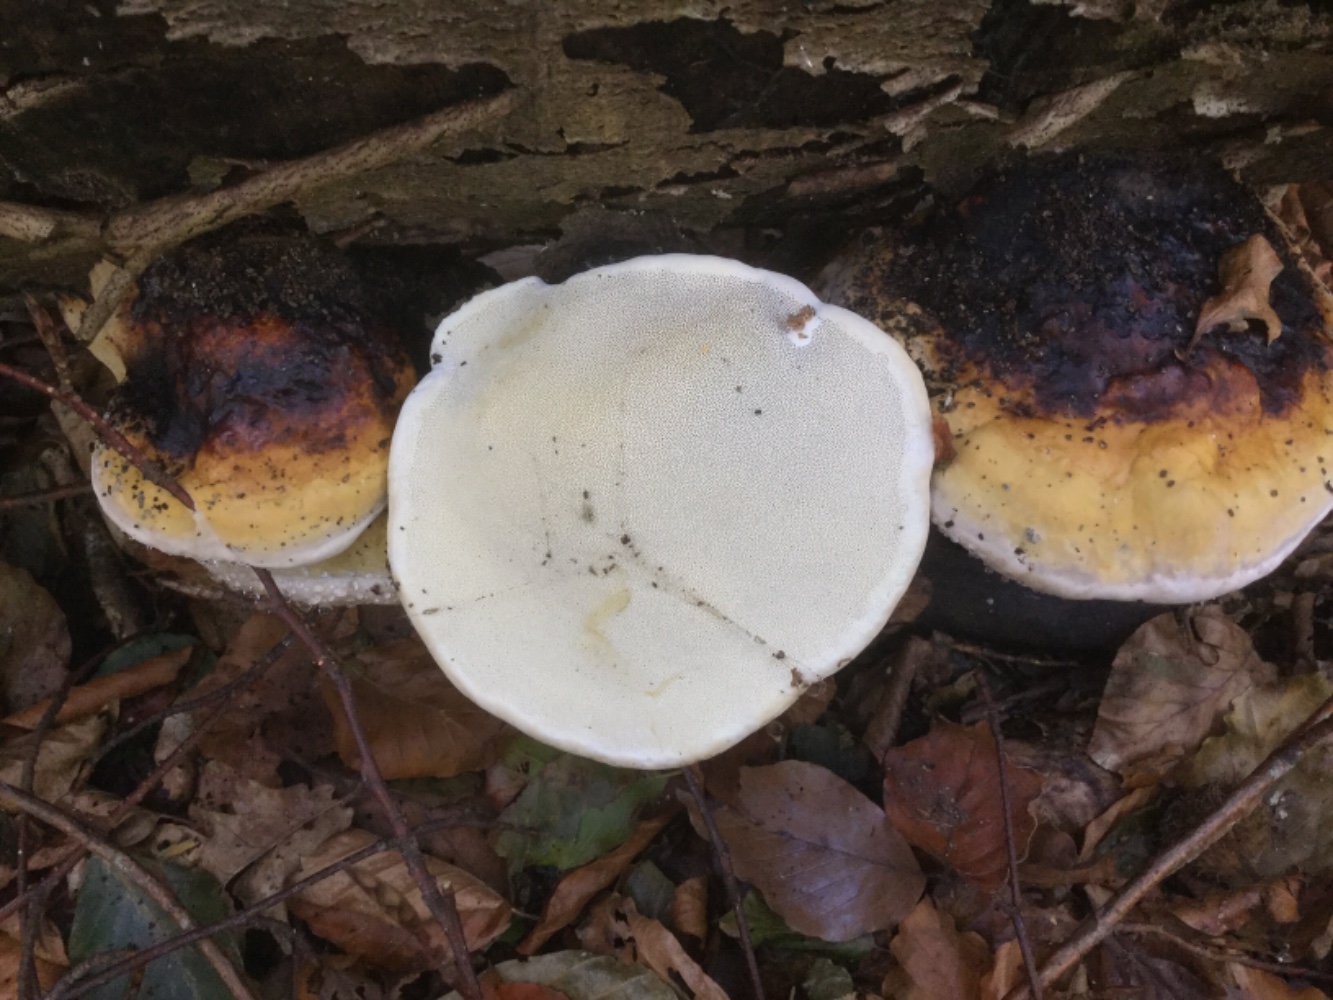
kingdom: Fungi
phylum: Basidiomycota
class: Agaricomycetes
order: Polyporales
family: Fomitopsidaceae
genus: Fomitopsis
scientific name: Fomitopsis pinicola
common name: randbæltet hovporesvamp
